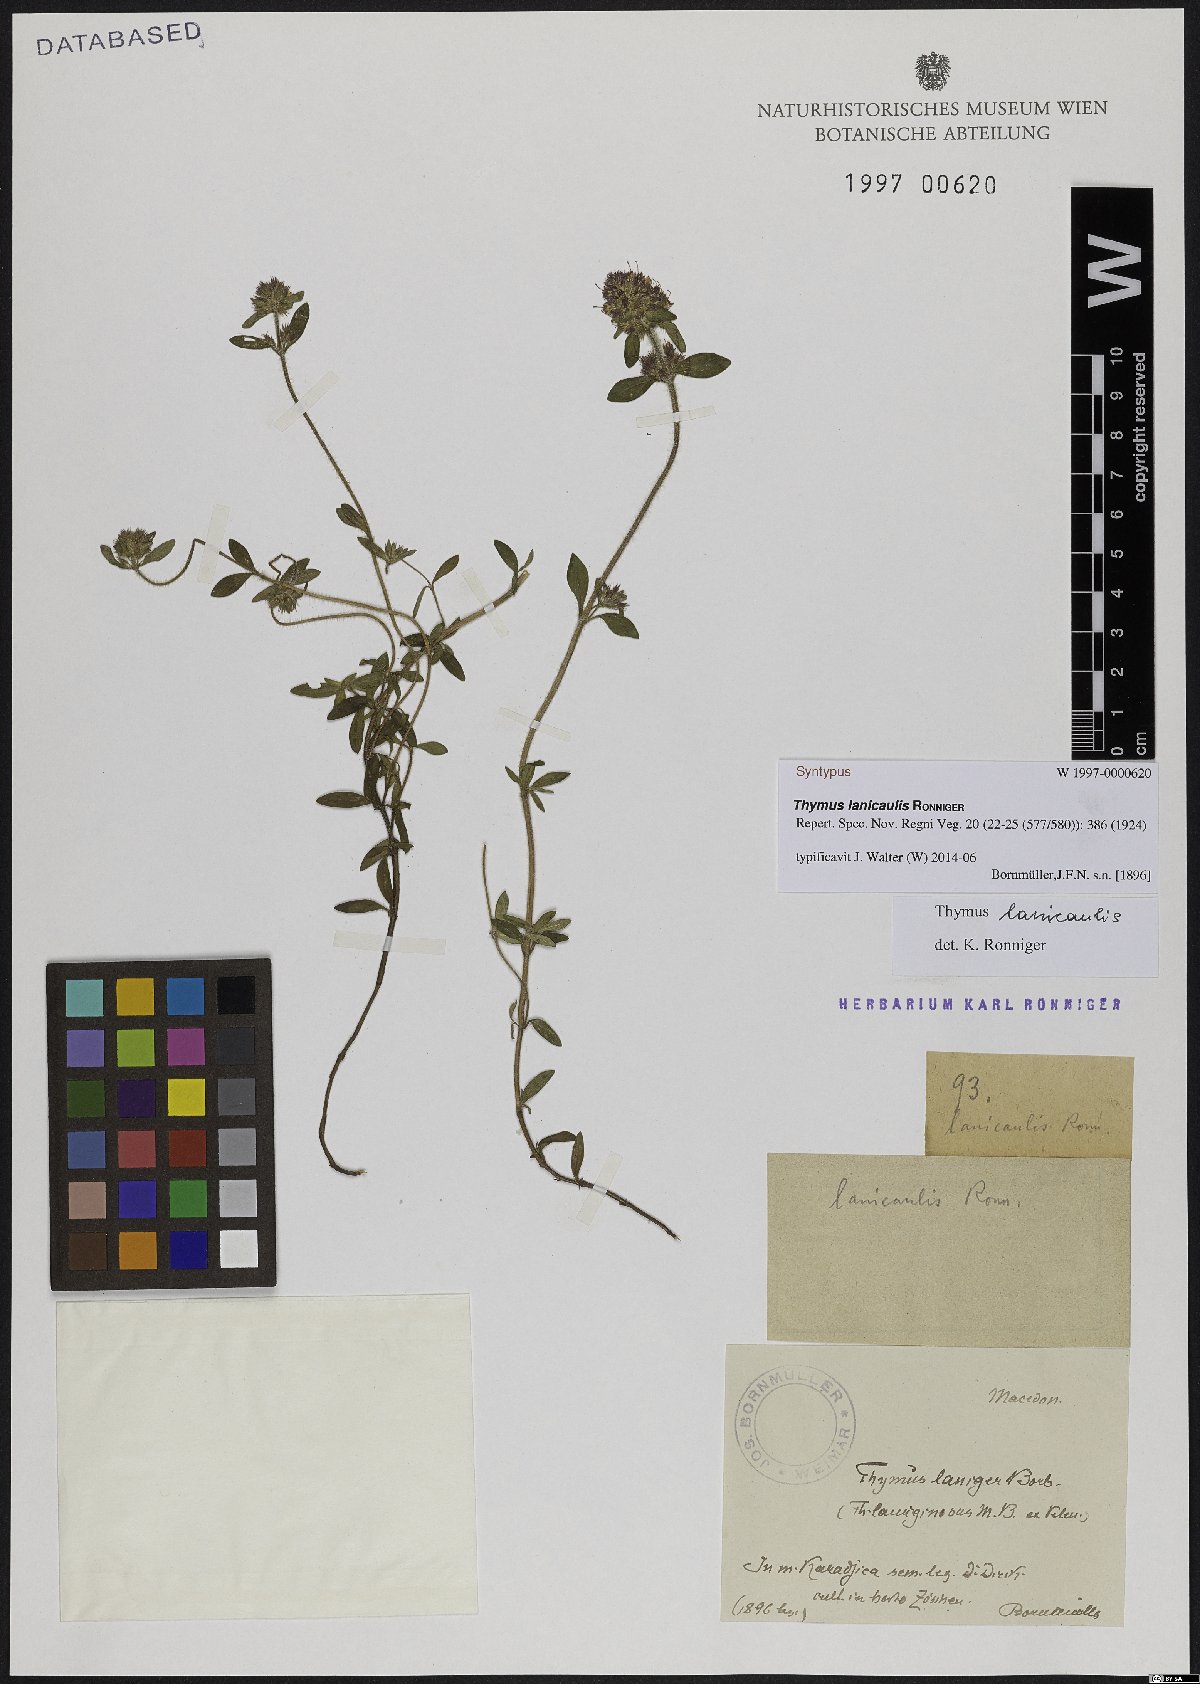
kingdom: Plantae
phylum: Tracheophyta
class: Magnoliopsida
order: Lamiales
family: Lamiaceae
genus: Thymus
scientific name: Thymus thracicus
